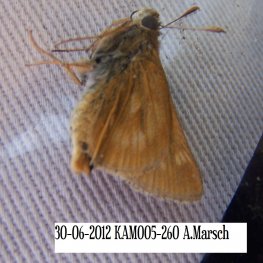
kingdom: Animalia
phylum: Arthropoda
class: Insecta
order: Lepidoptera
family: Hesperiidae
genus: Polites
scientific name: Polites
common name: Long Dash Skipper
